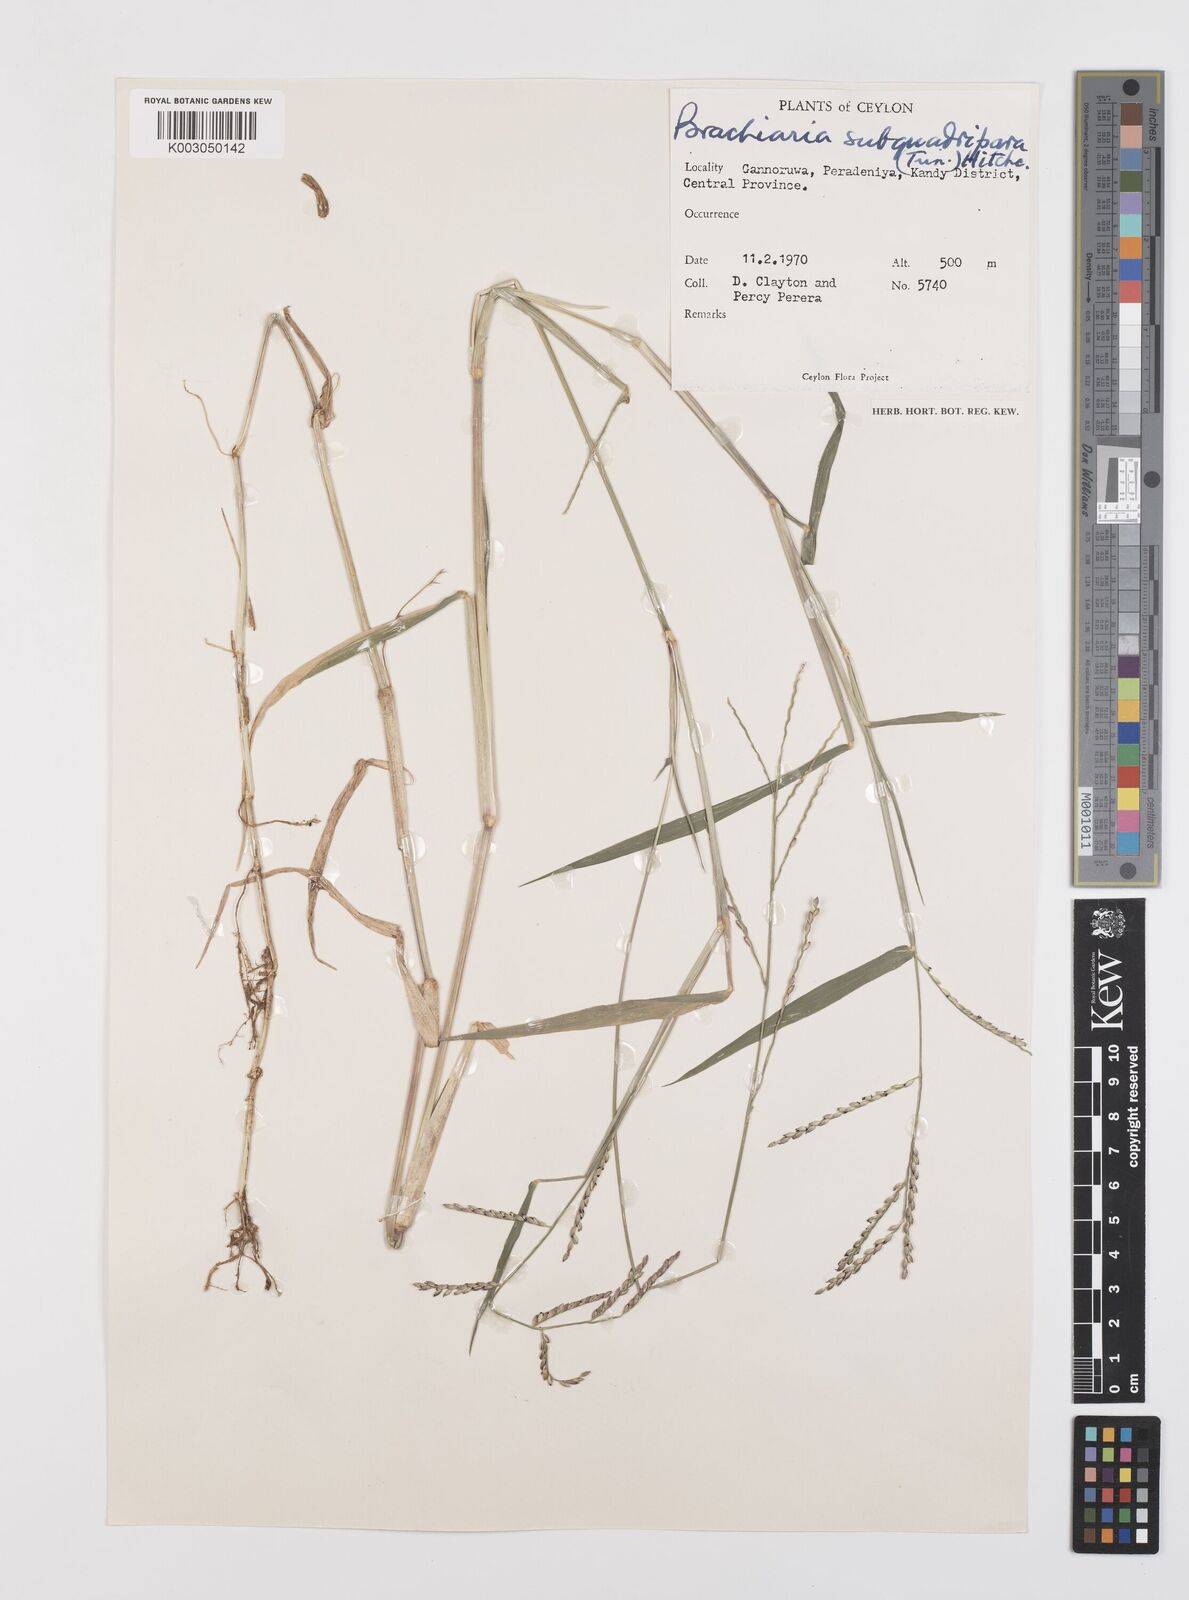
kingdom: Plantae
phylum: Tracheophyta
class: Liliopsida
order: Poales
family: Poaceae
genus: Urochloa
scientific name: Urochloa subquadripara
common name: Armgrass millet
